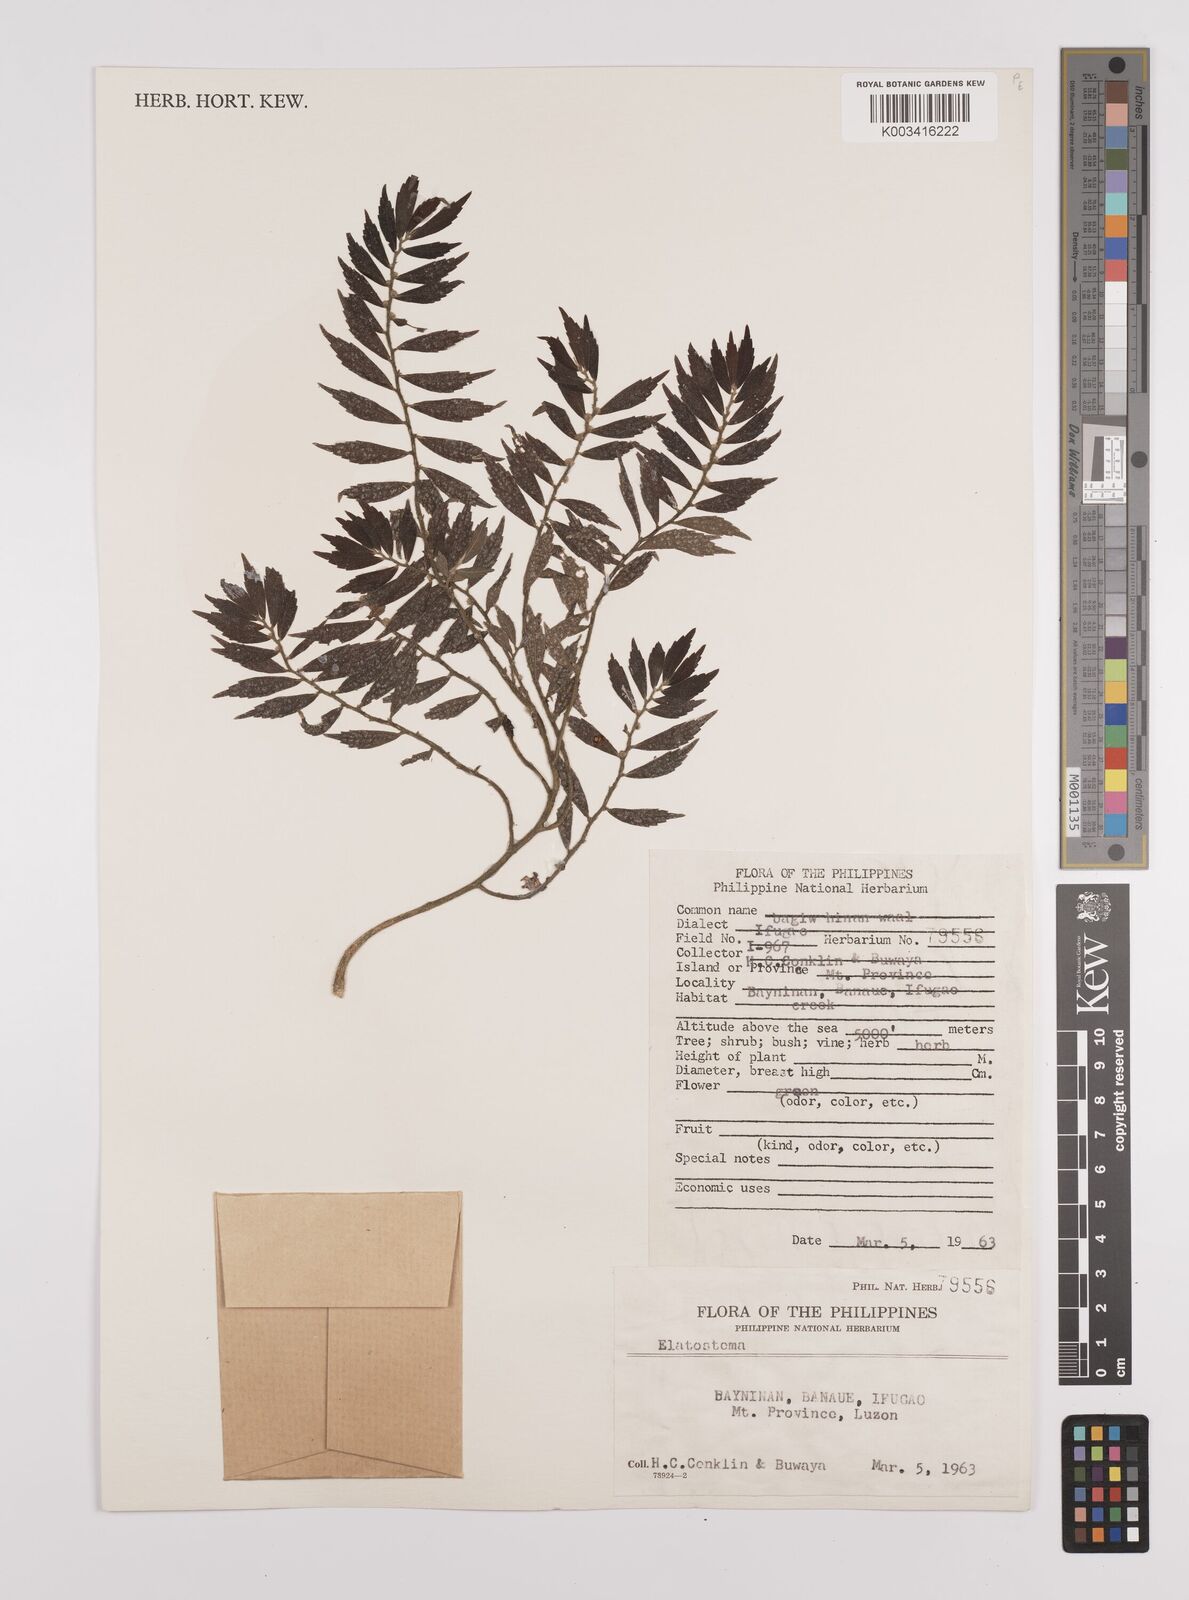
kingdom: Plantae
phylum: Tracheophyta
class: Magnoliopsida
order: Rosales
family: Urticaceae
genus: Elatostema
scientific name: Elatostema
